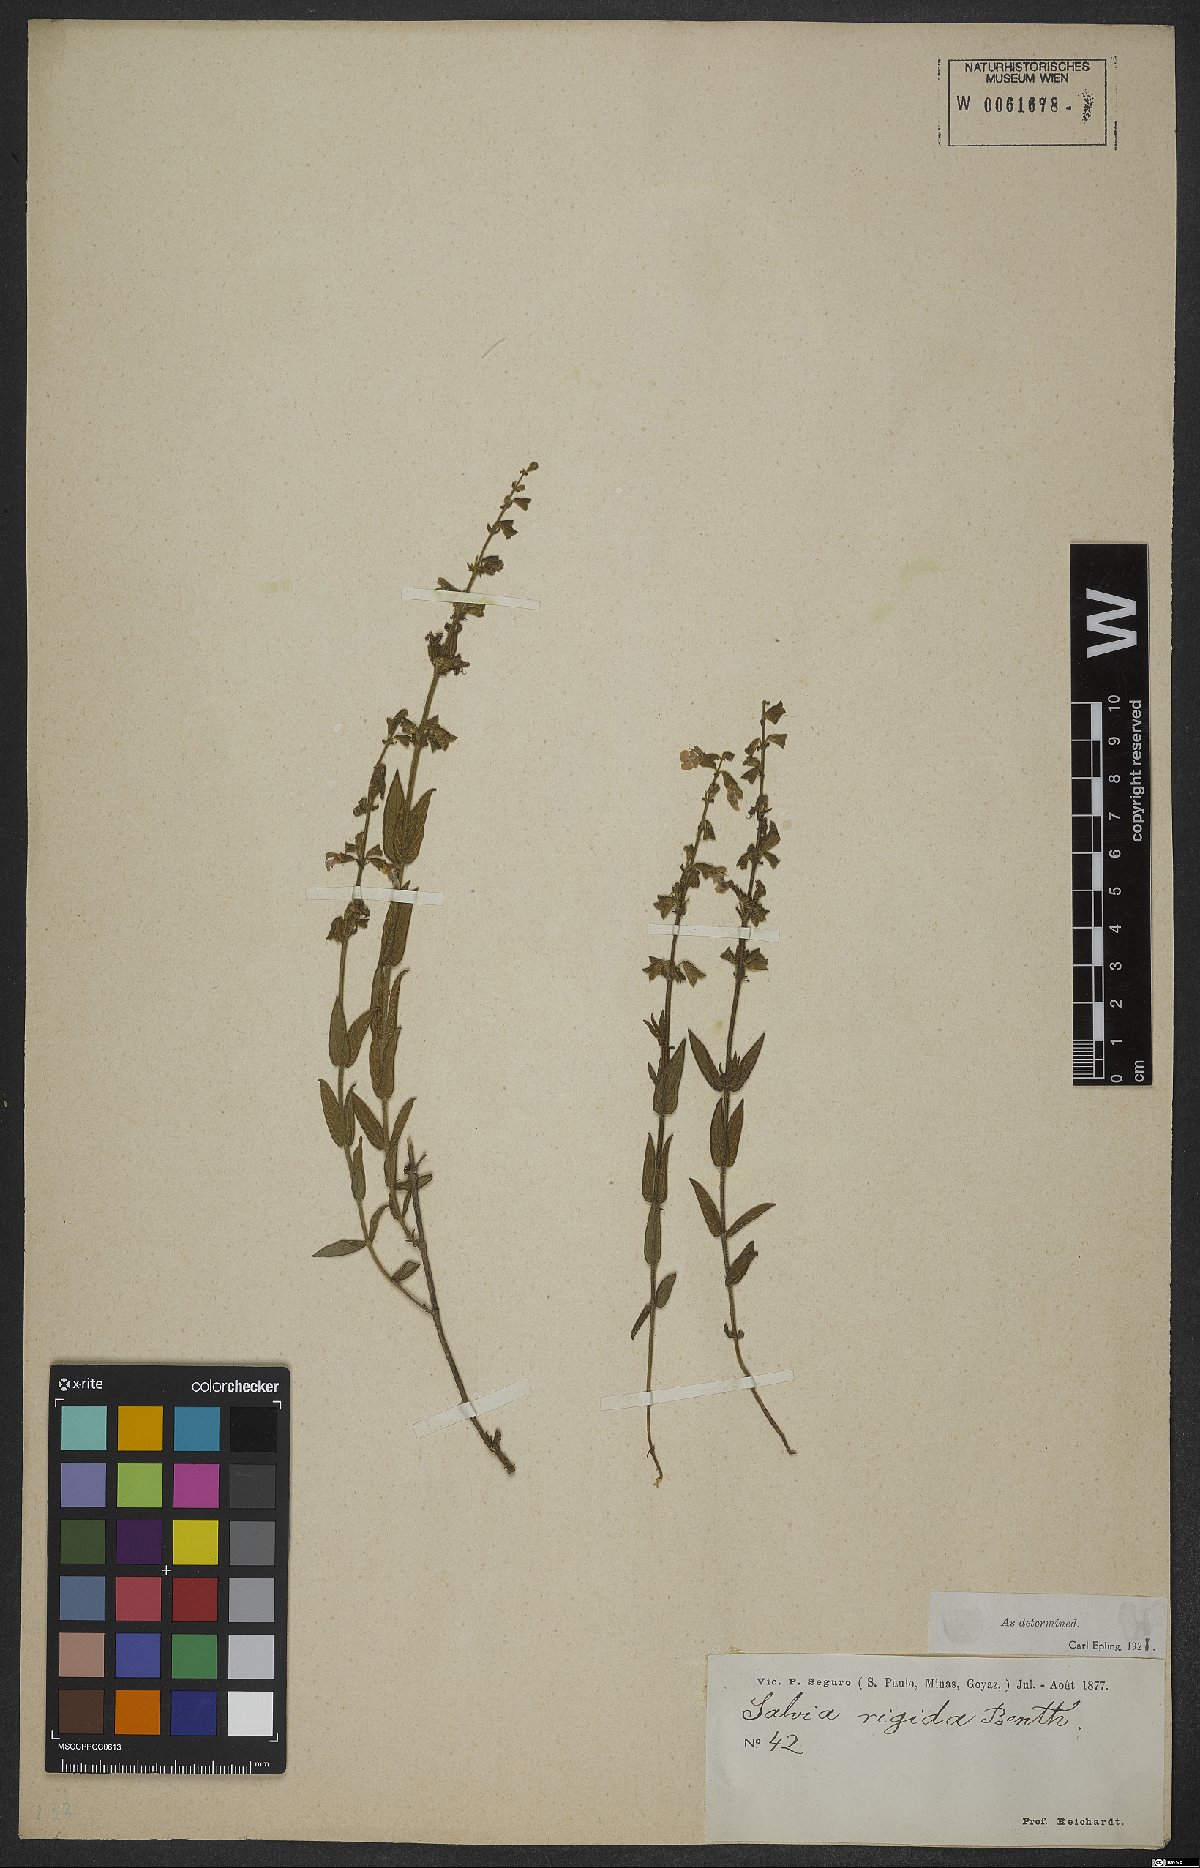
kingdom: Plantae
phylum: Tracheophyta
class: Magnoliopsida
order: Lamiales
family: Lamiaceae
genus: Salvia
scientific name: Salvia nervosa
